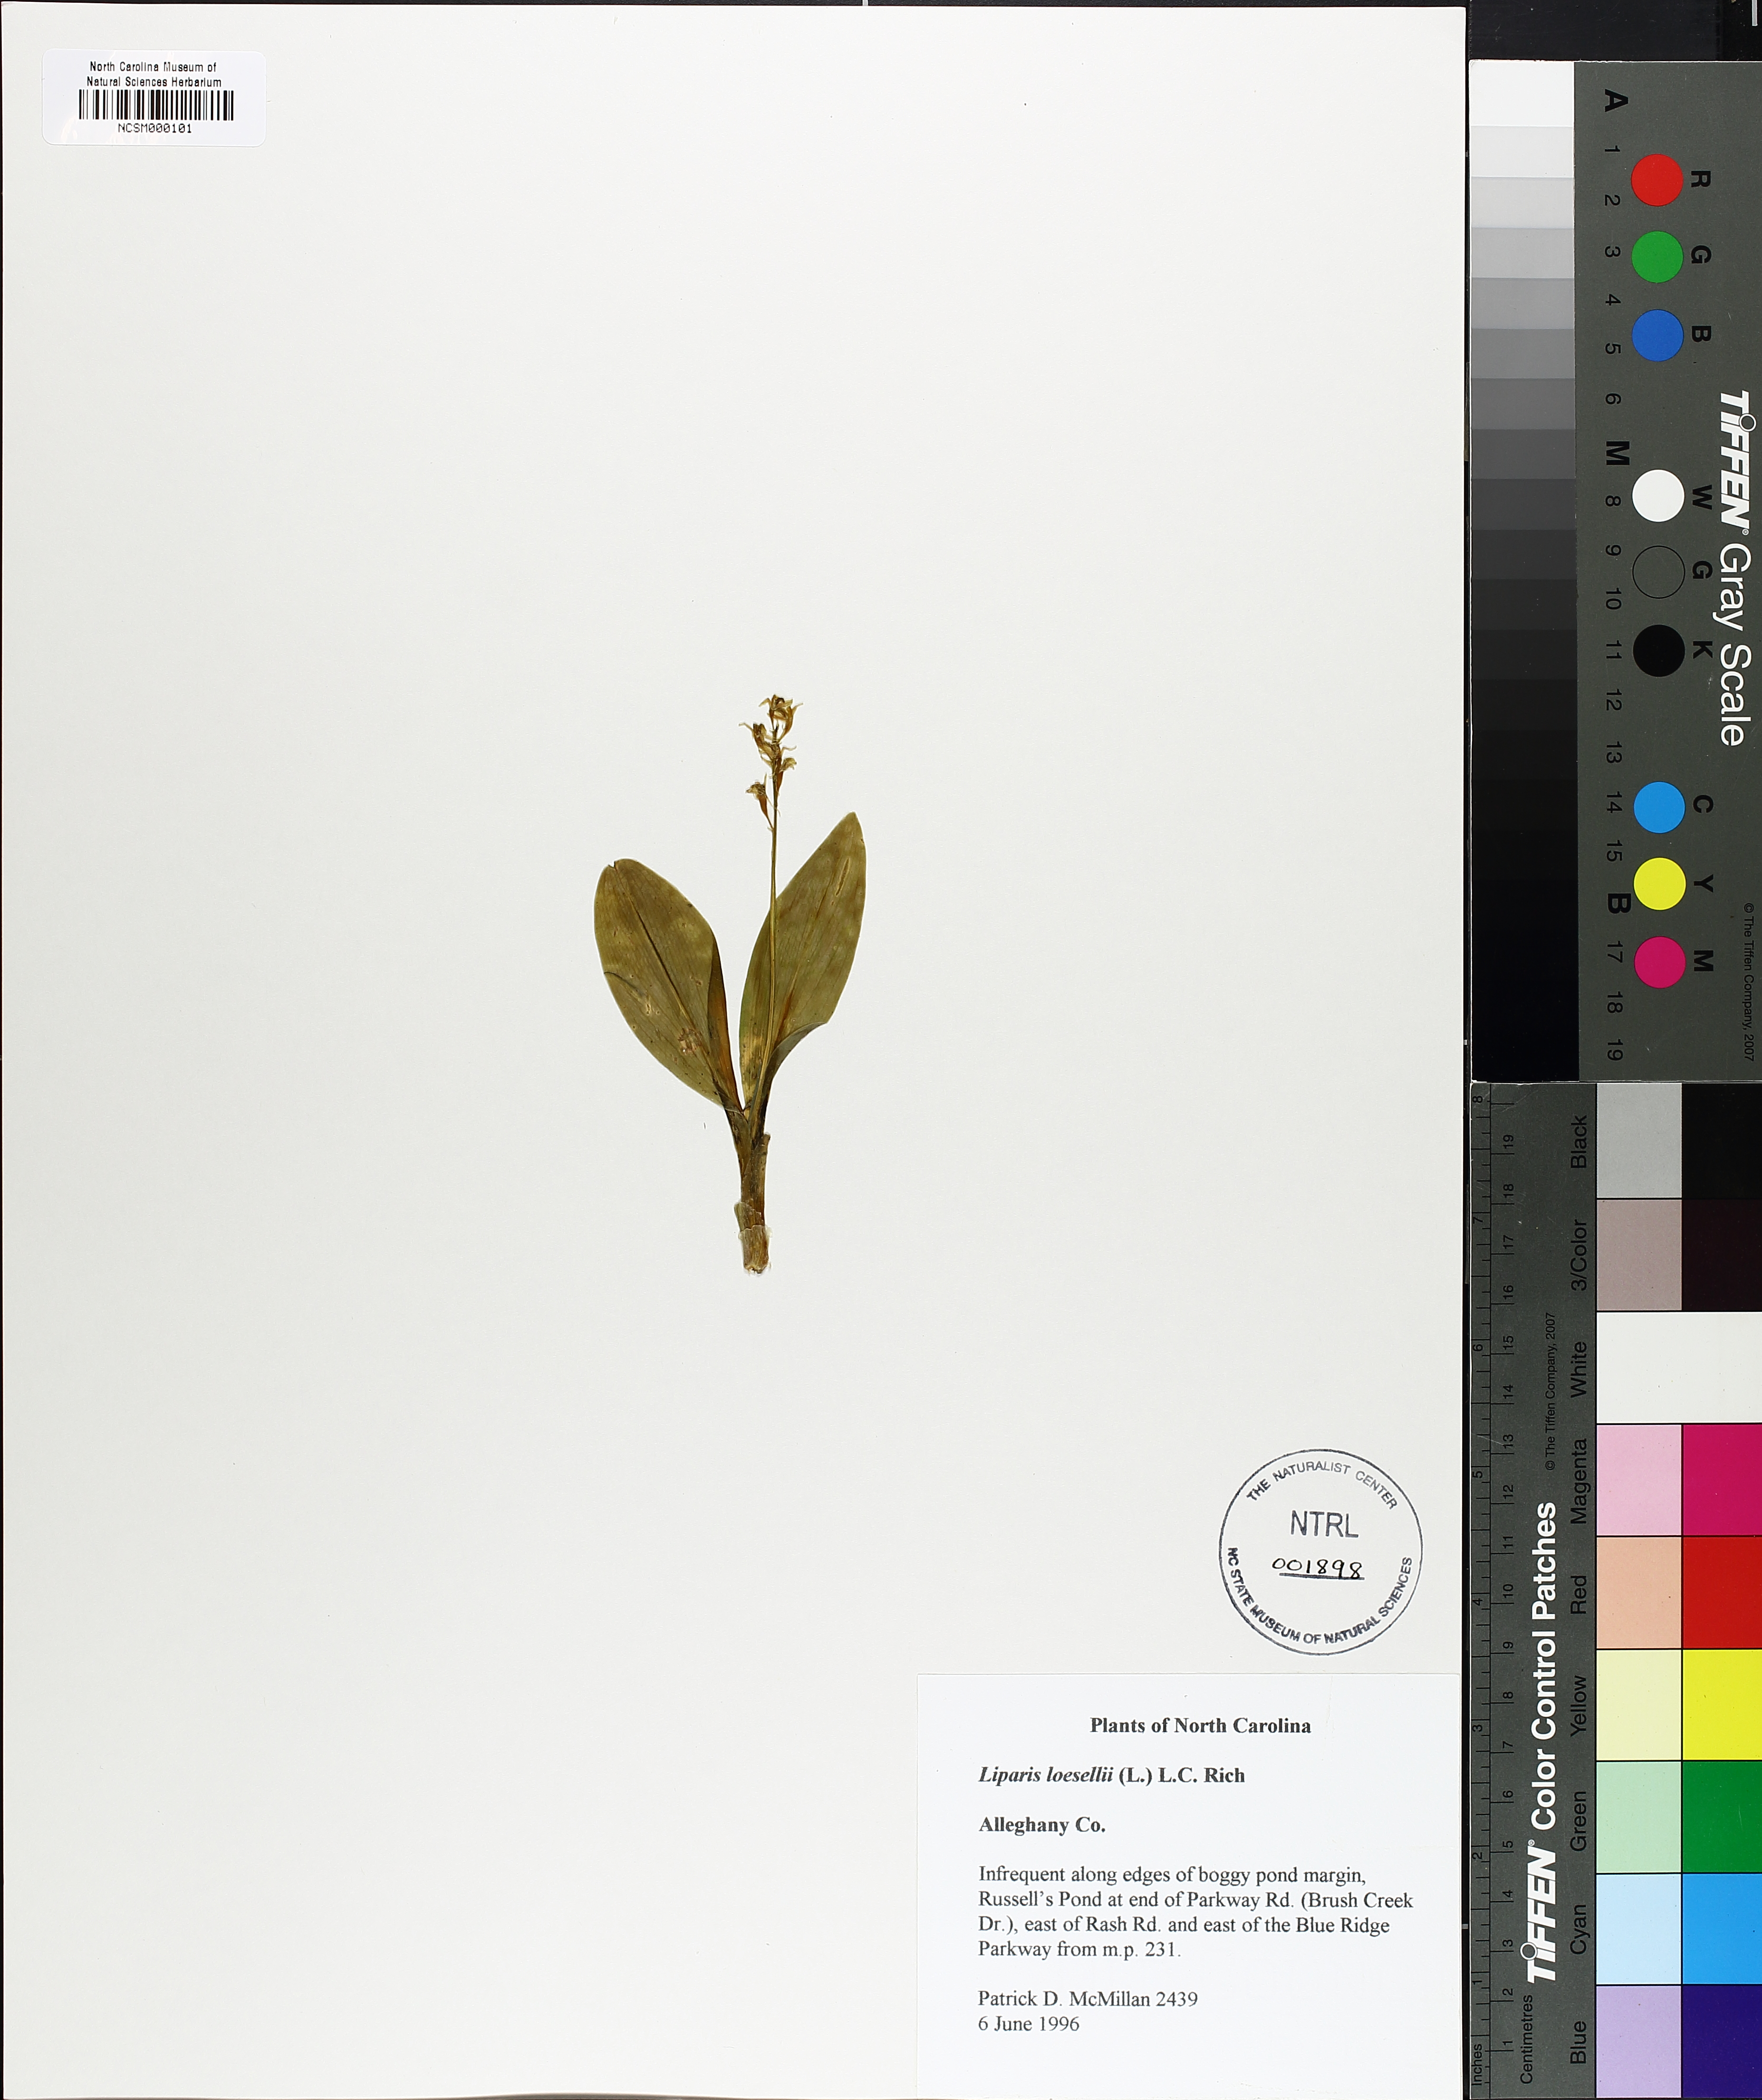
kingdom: Animalia
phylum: Arthropoda
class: Insecta
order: Coleoptera
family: Curculionidae
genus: Liparis
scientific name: Liparis loeselii
